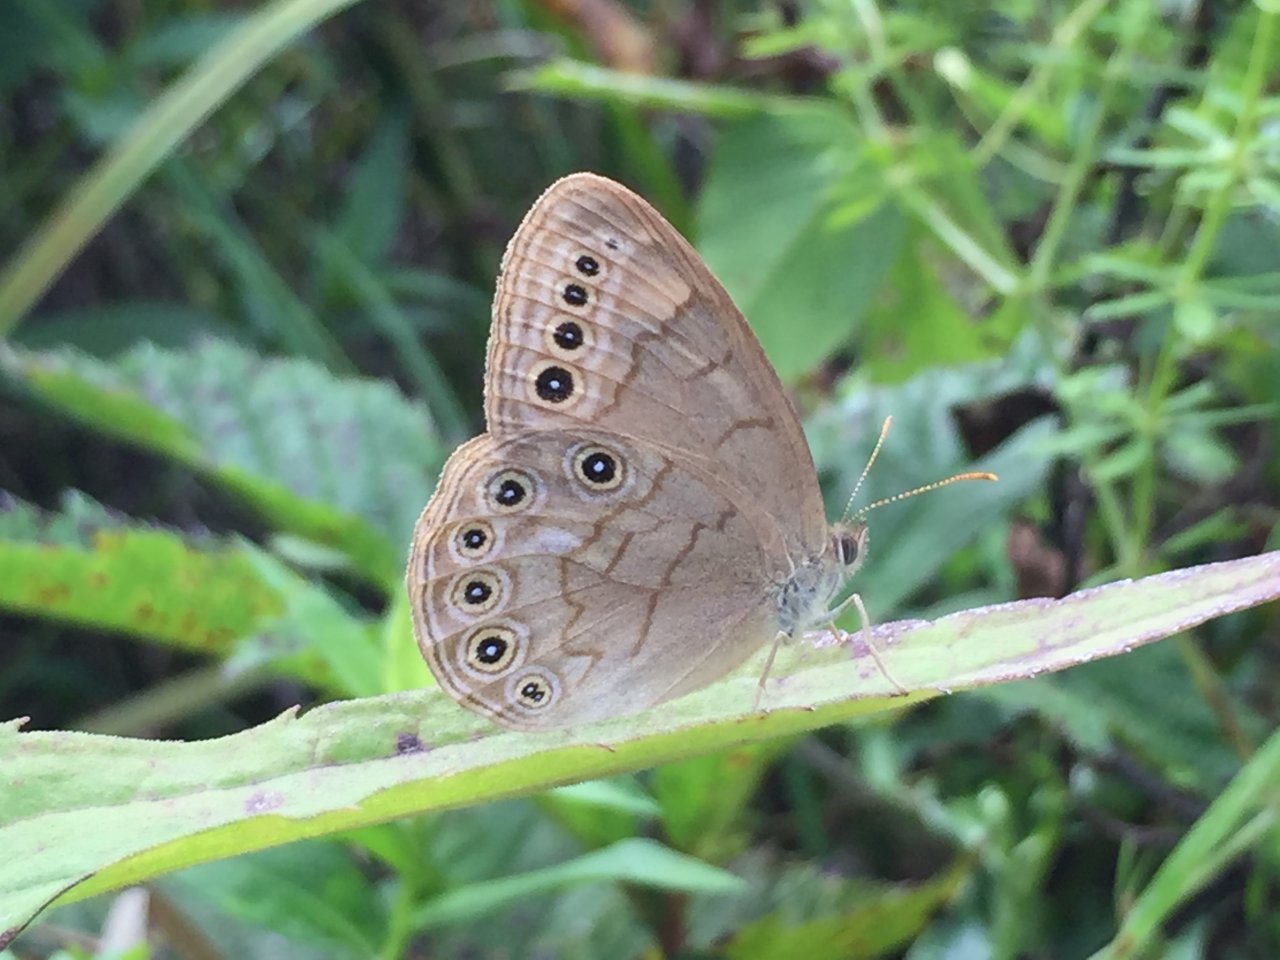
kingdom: Animalia
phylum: Arthropoda
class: Insecta
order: Lepidoptera
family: Nymphalidae
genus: Lethe
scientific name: Lethe eurydice
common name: Eyed Brown
